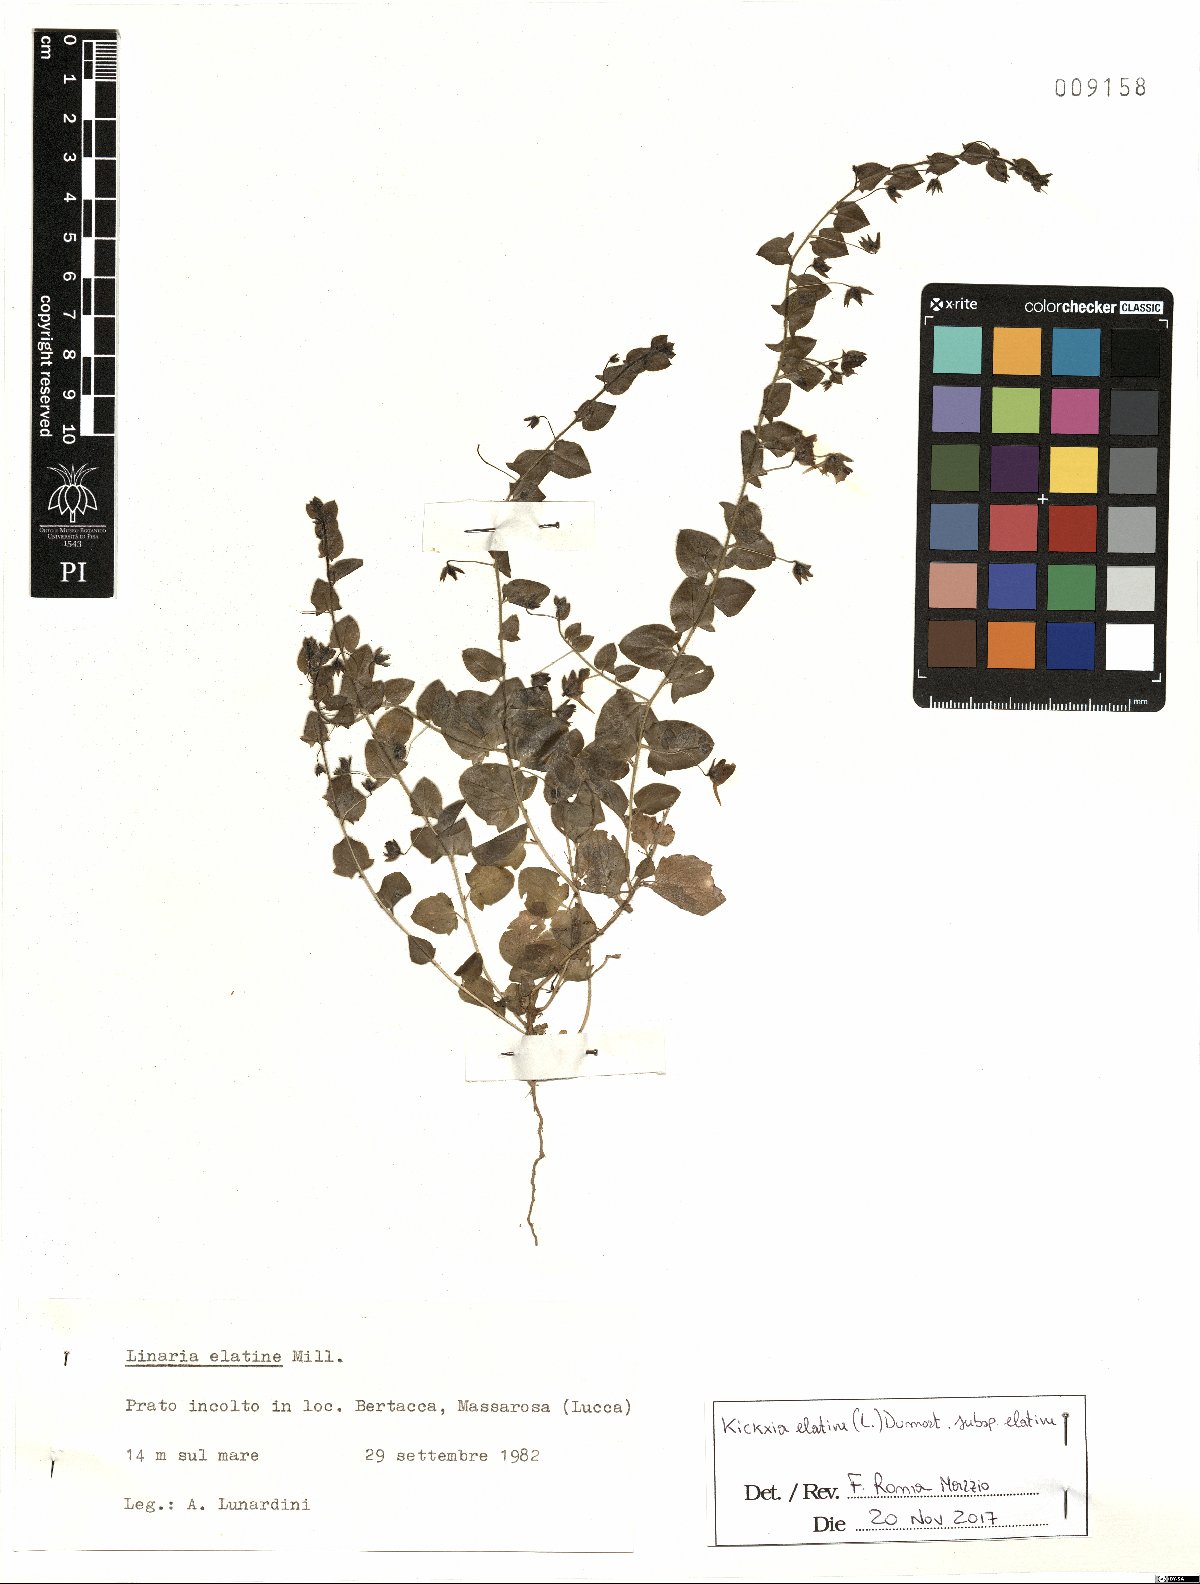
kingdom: Plantae
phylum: Tracheophyta
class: Magnoliopsida
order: Lamiales
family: Plantaginaceae
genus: Kickxia
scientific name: Kickxia elatine
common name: Sharp-leaved fluellen
